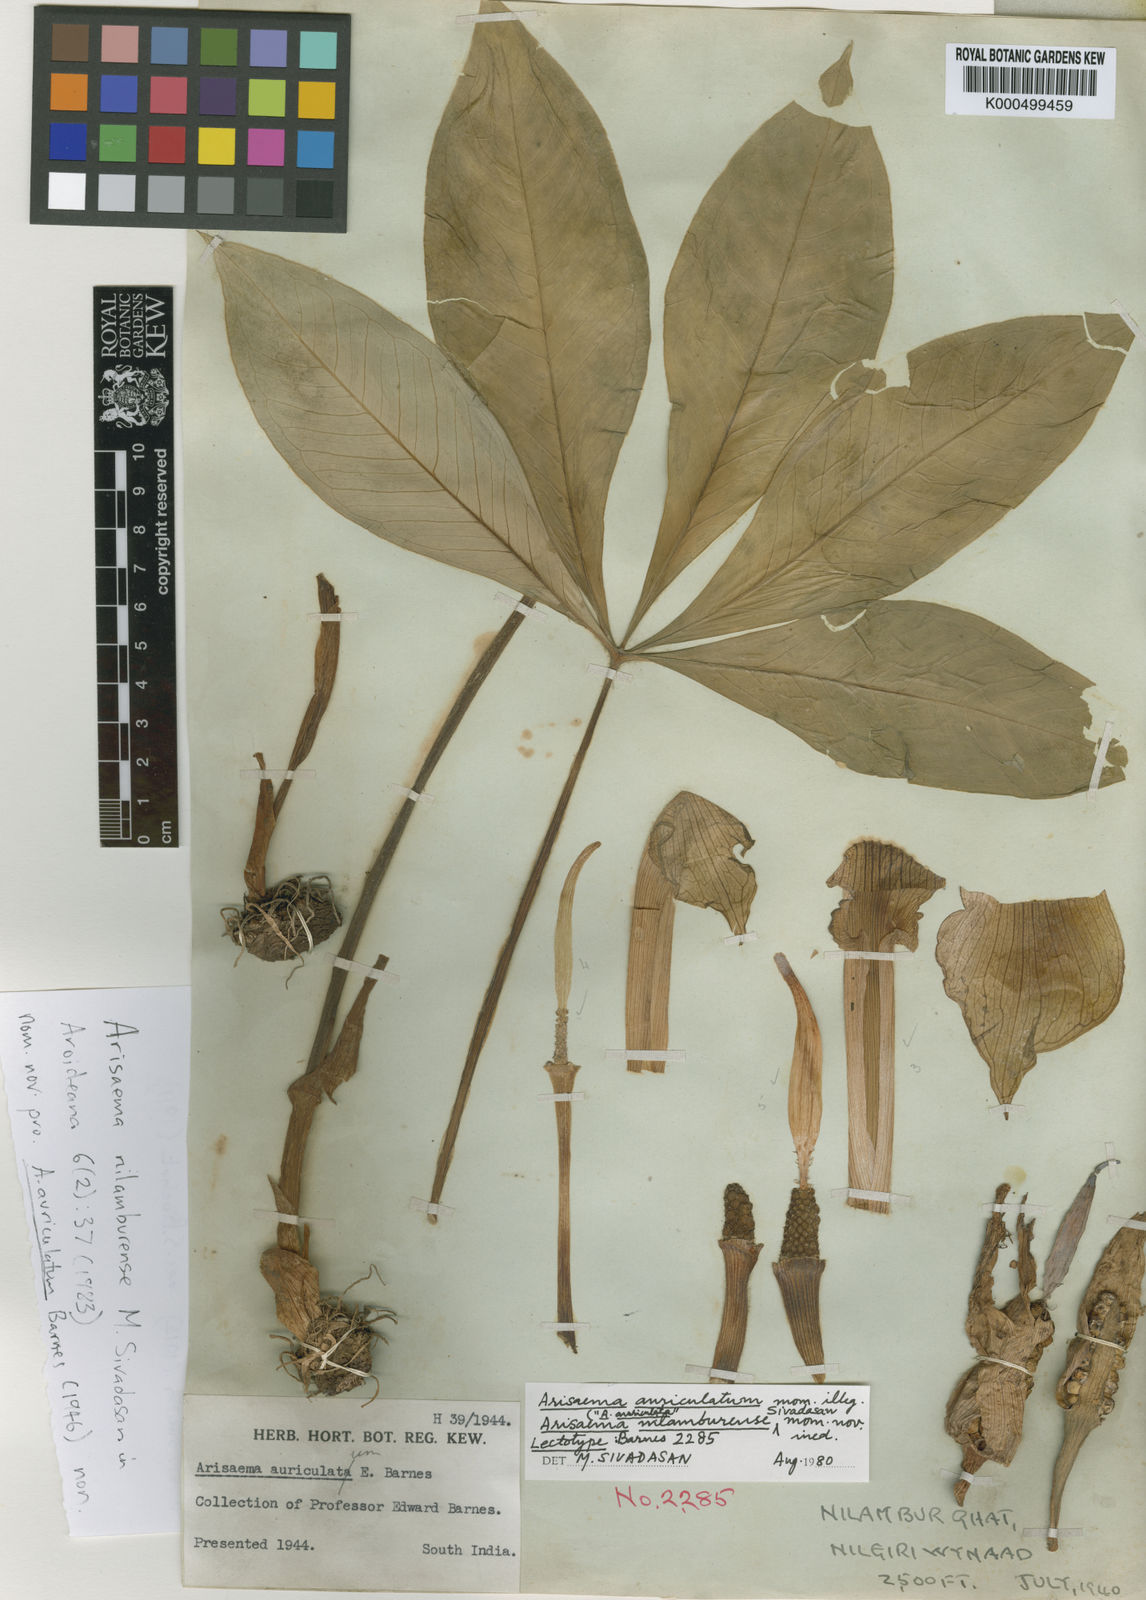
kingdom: Plantae
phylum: Tracheophyta
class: Liliopsida
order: Alismatales
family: Araceae
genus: Arisaema
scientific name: Arisaema nilamburense
